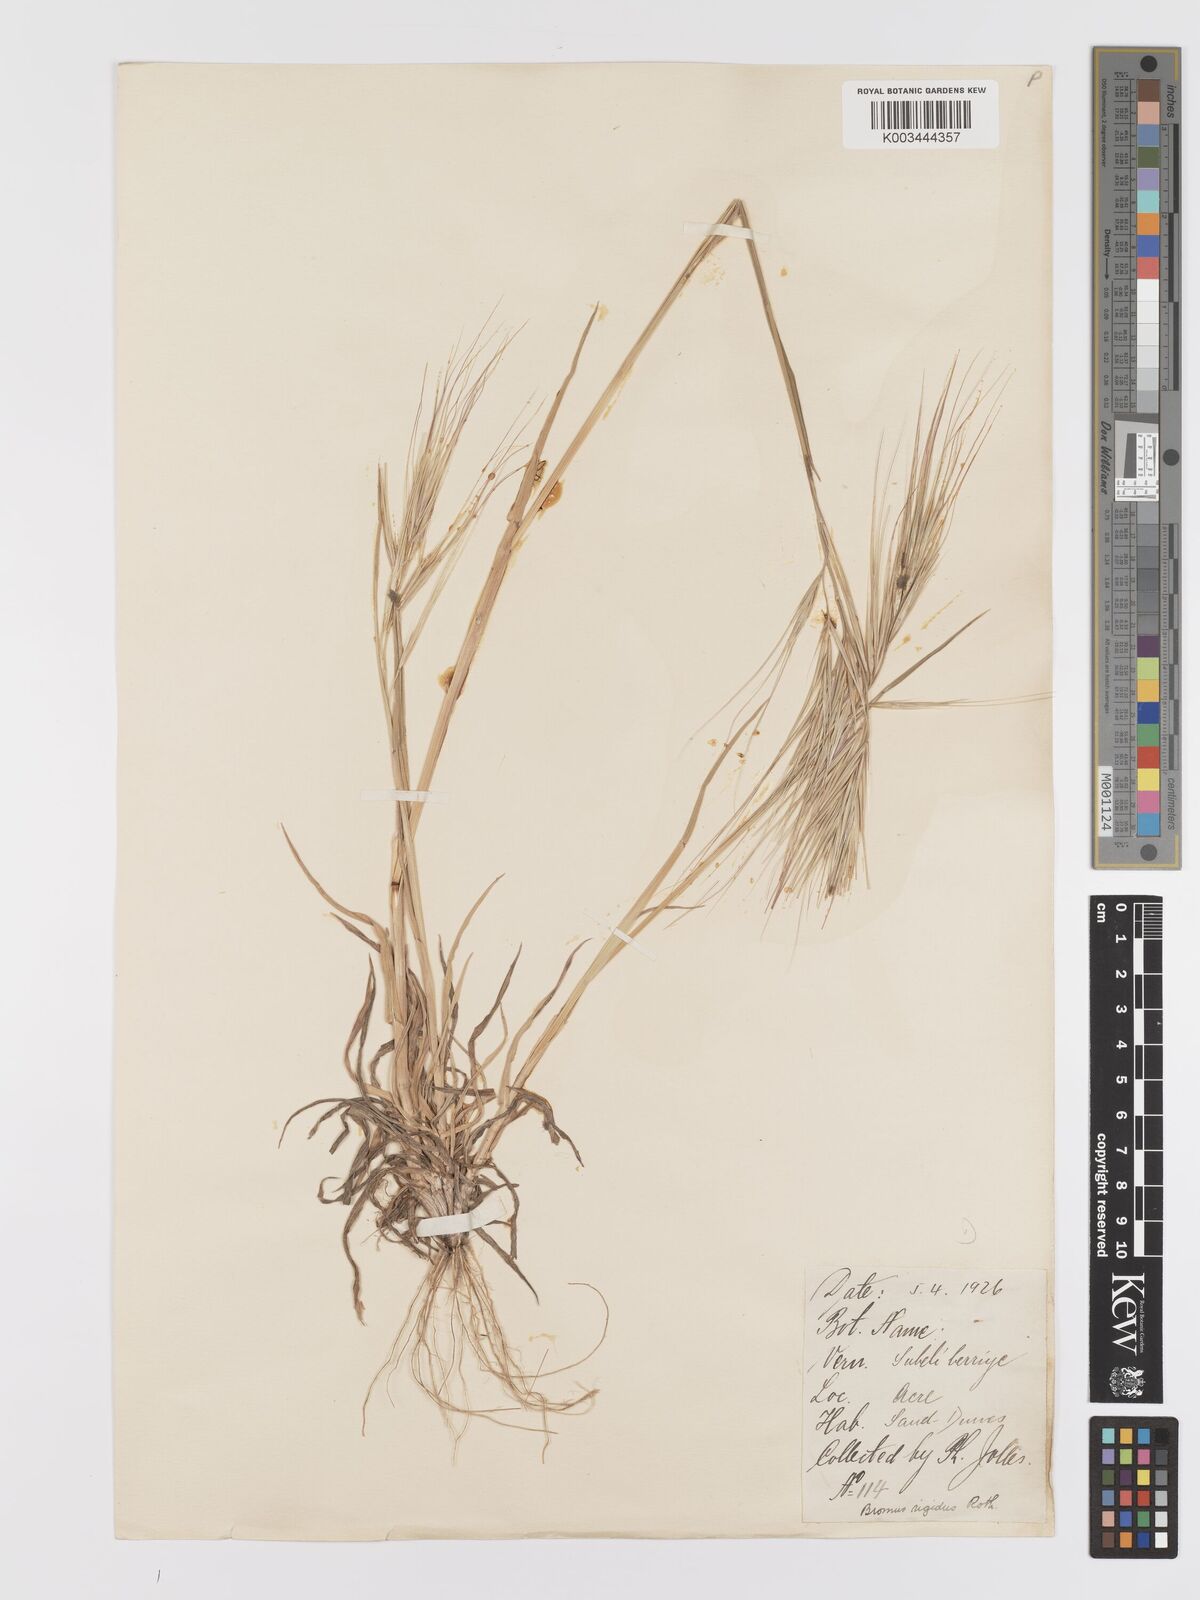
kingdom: Plantae
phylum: Tracheophyta
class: Liliopsida
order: Poales
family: Poaceae
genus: Bromus
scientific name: Bromus diandrus
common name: Ripgut brome
